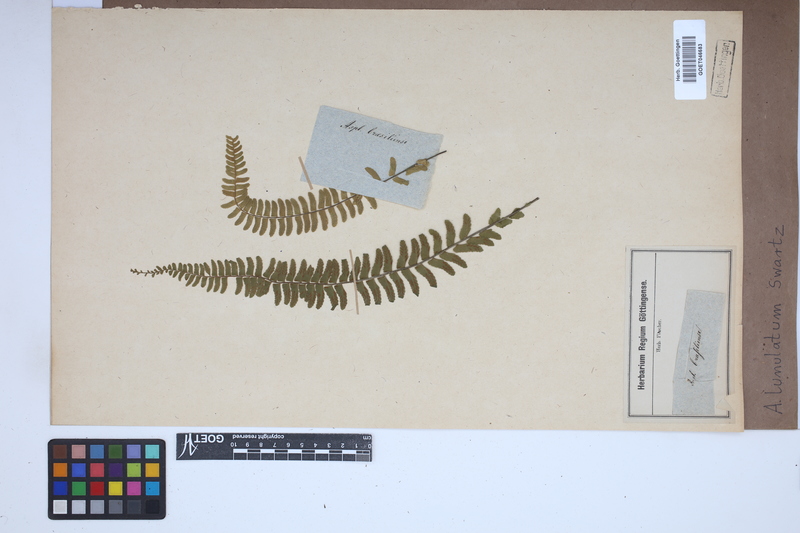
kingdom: Plantae
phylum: Tracheophyta
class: Polypodiopsida
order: Polypodiales
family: Aspleniaceae
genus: Asplenium
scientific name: Asplenium lunulatum
